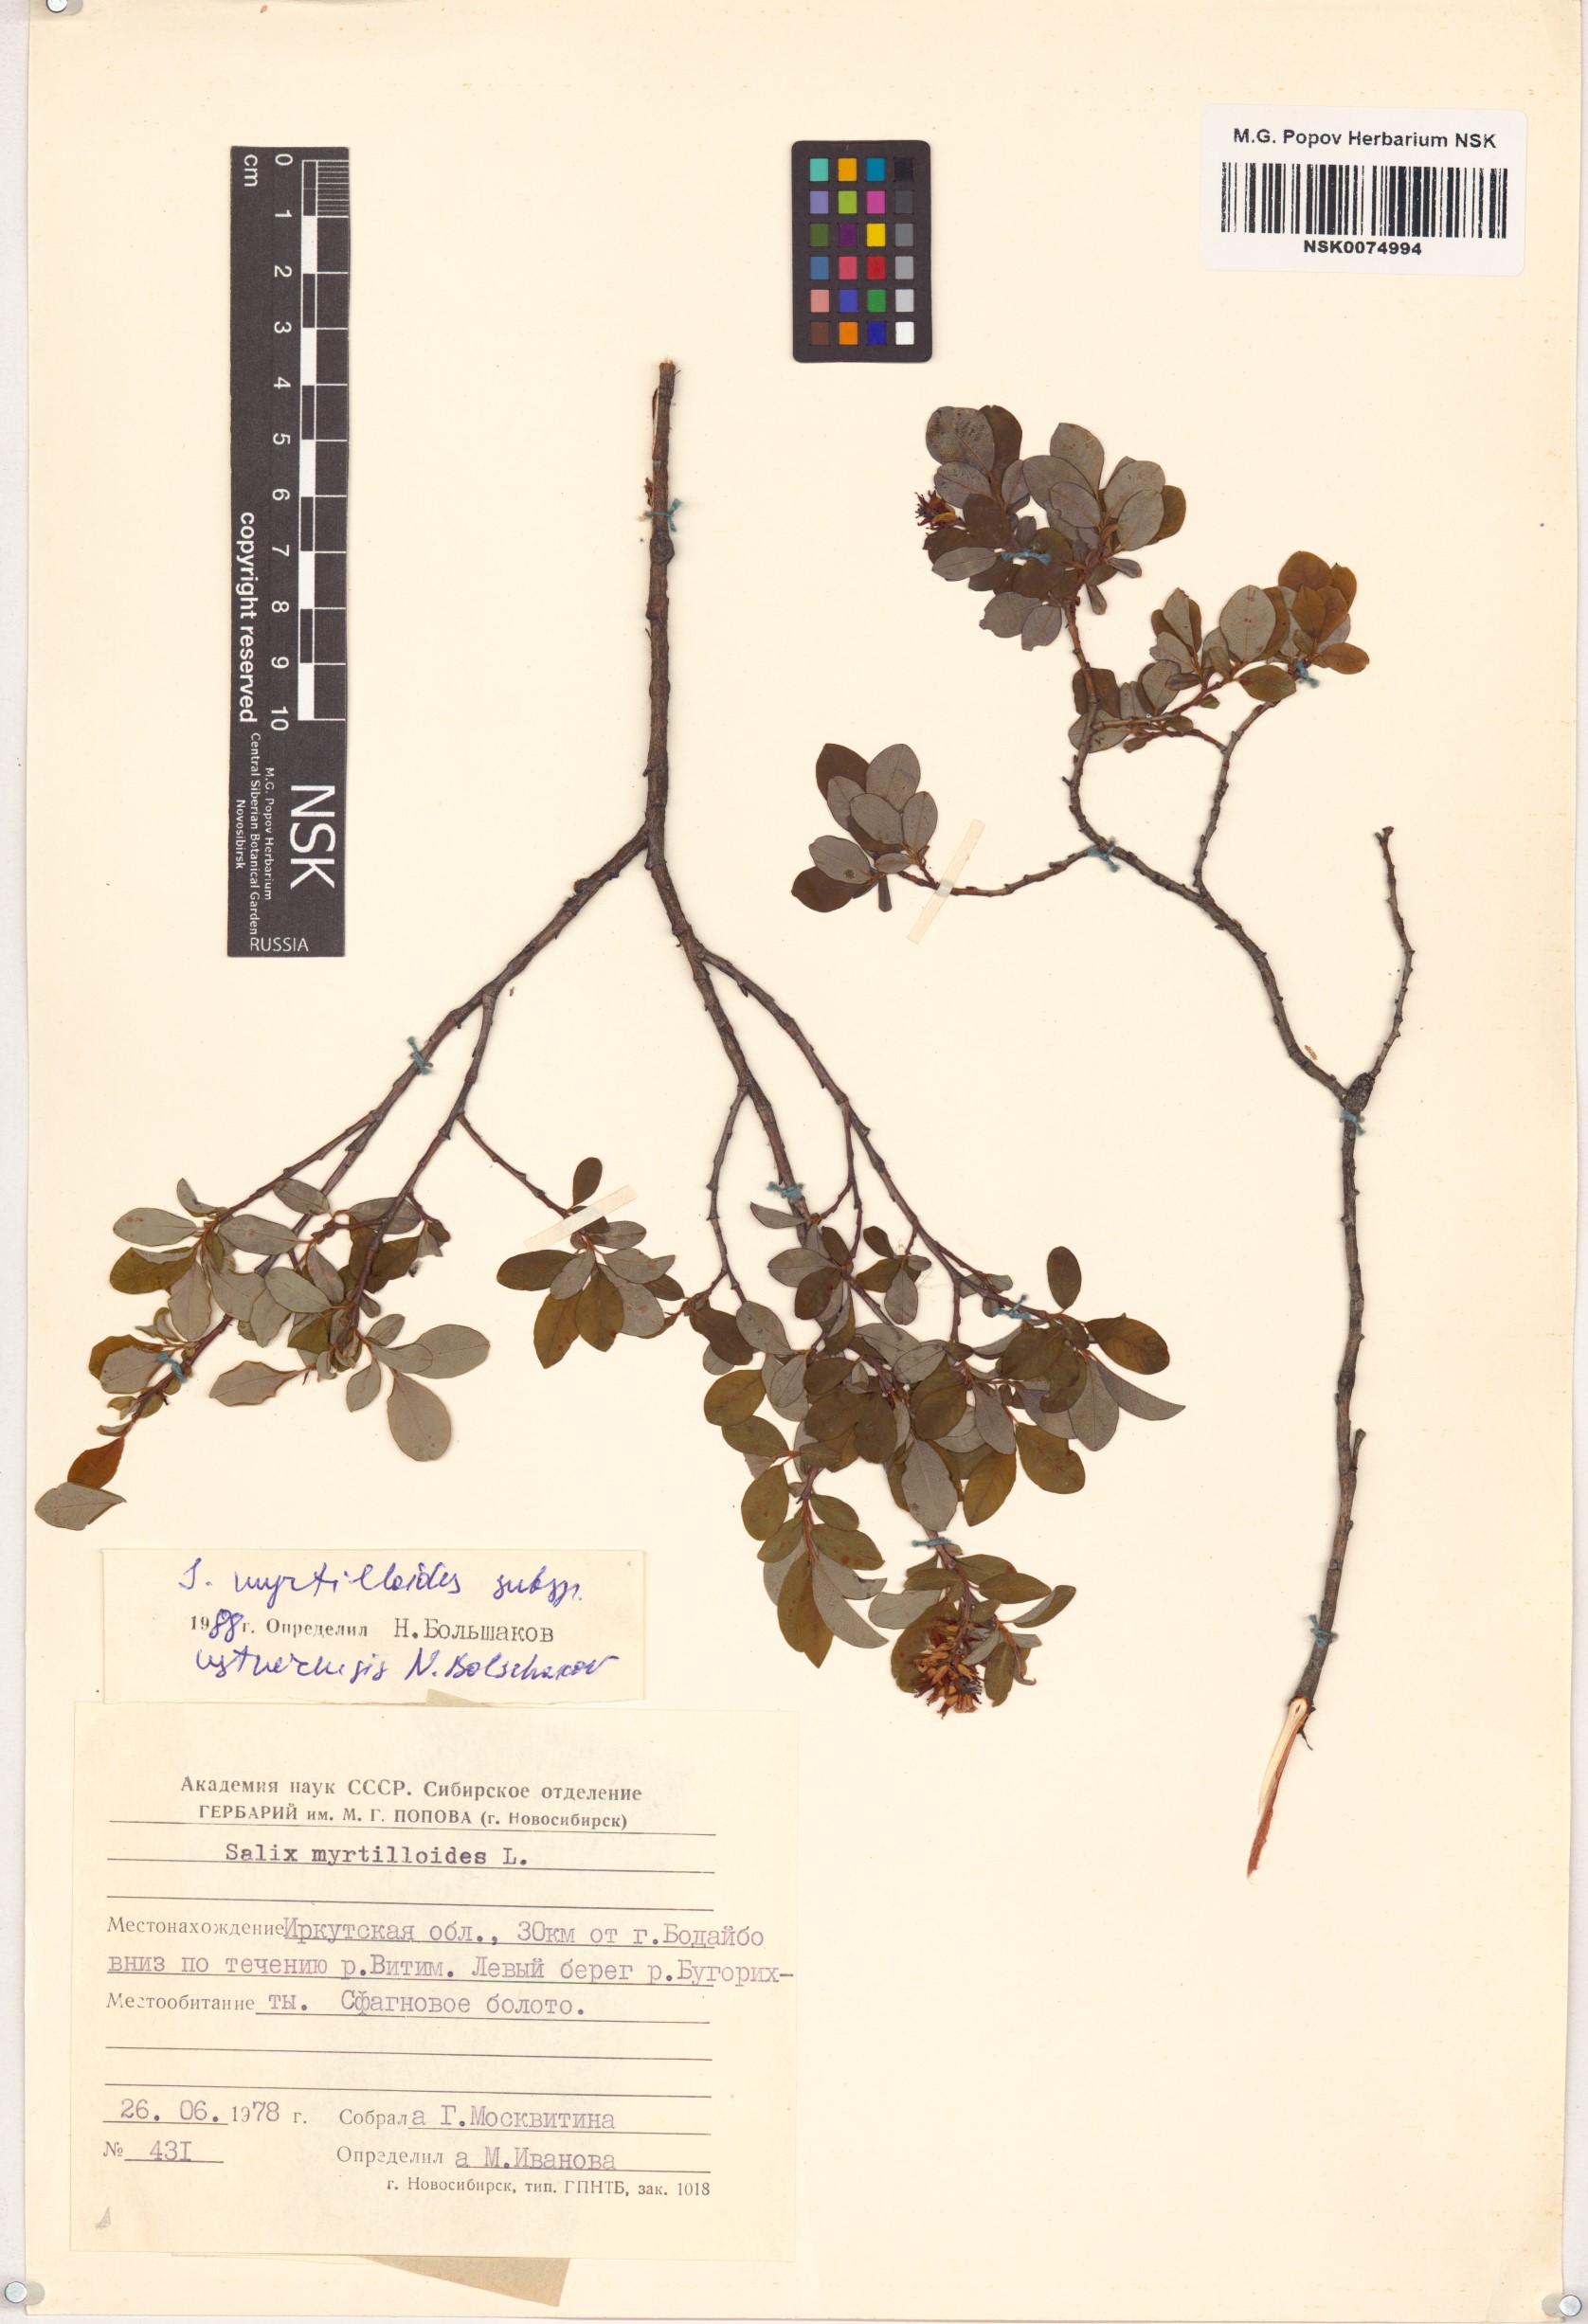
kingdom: Plantae
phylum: Tracheophyta
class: Magnoliopsida
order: Malpighiales
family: Salicaceae
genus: Salix
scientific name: Salix ustnerensis
